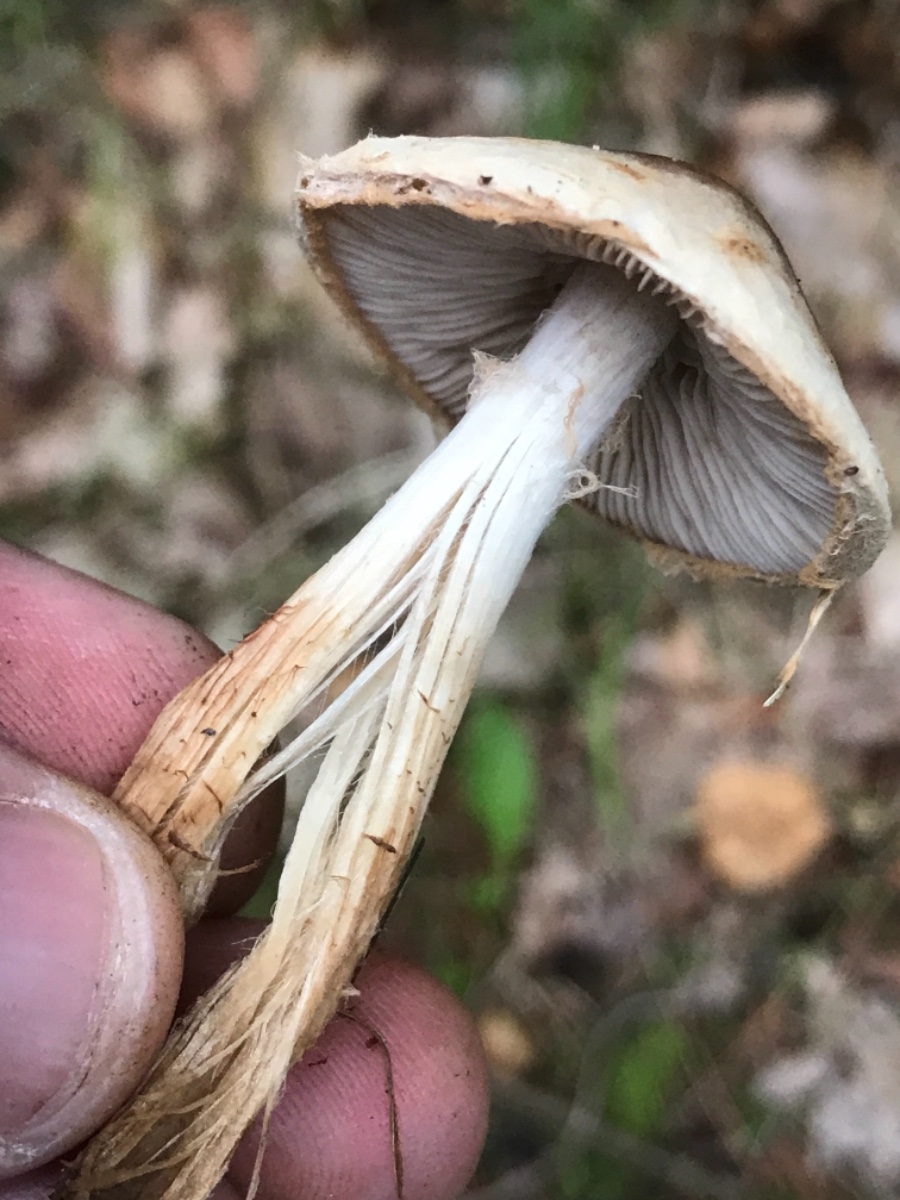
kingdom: Fungi
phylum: Basidiomycota
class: Agaricomycetes
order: Agaricales
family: Hymenogastraceae
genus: Hebeloma
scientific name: Hebeloma mesophaeum
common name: lerbrun tåreblad
